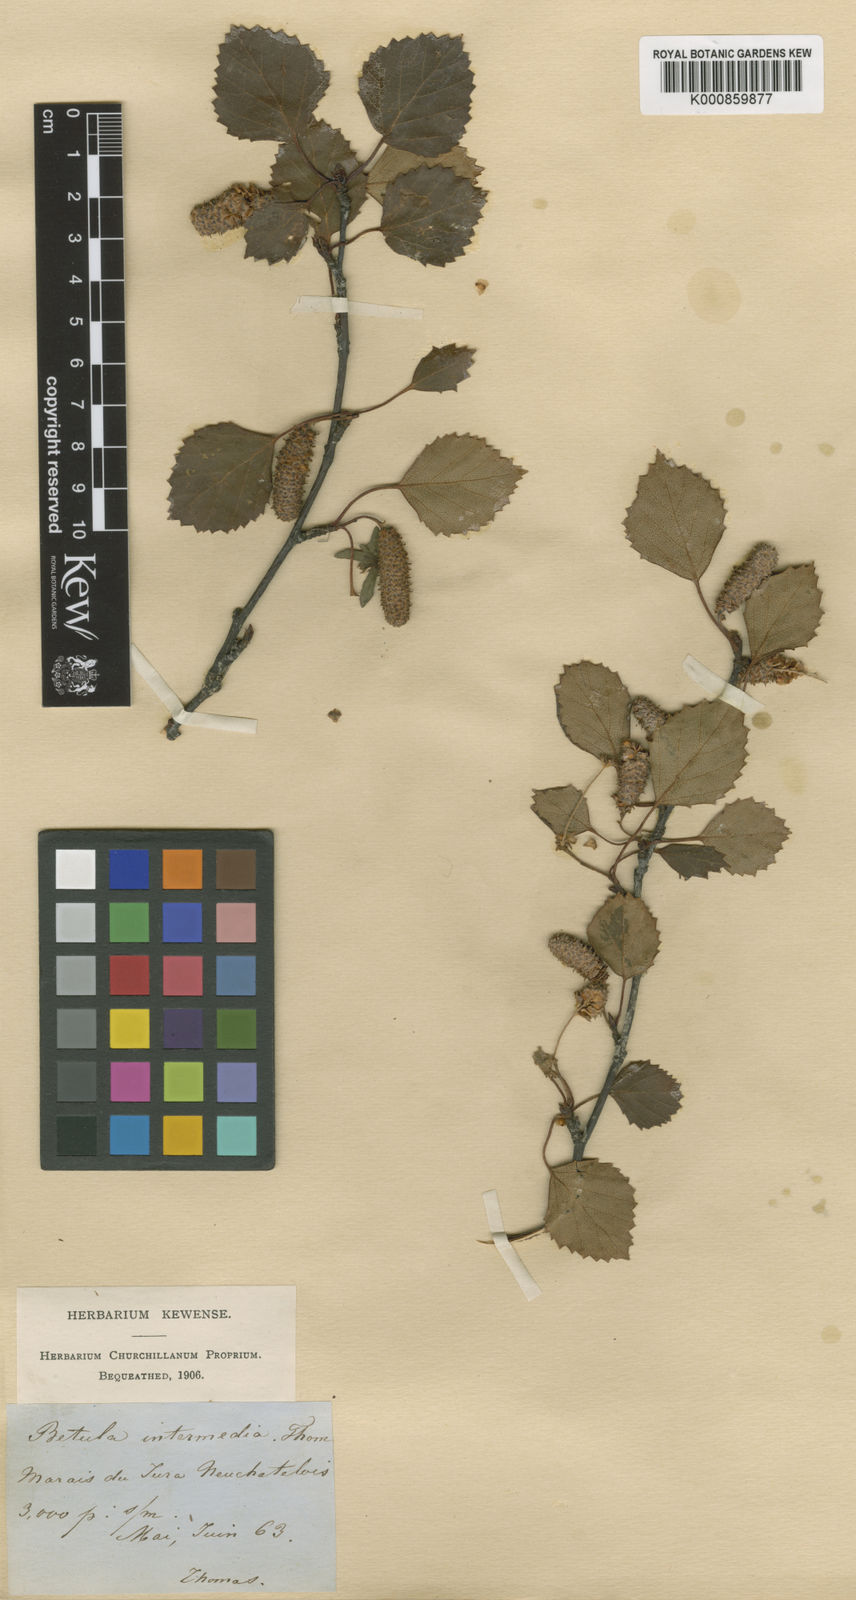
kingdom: Plantae
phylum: Tracheophyta
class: Magnoliopsida
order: Fagales
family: Betulaceae
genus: Betula
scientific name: Betula
